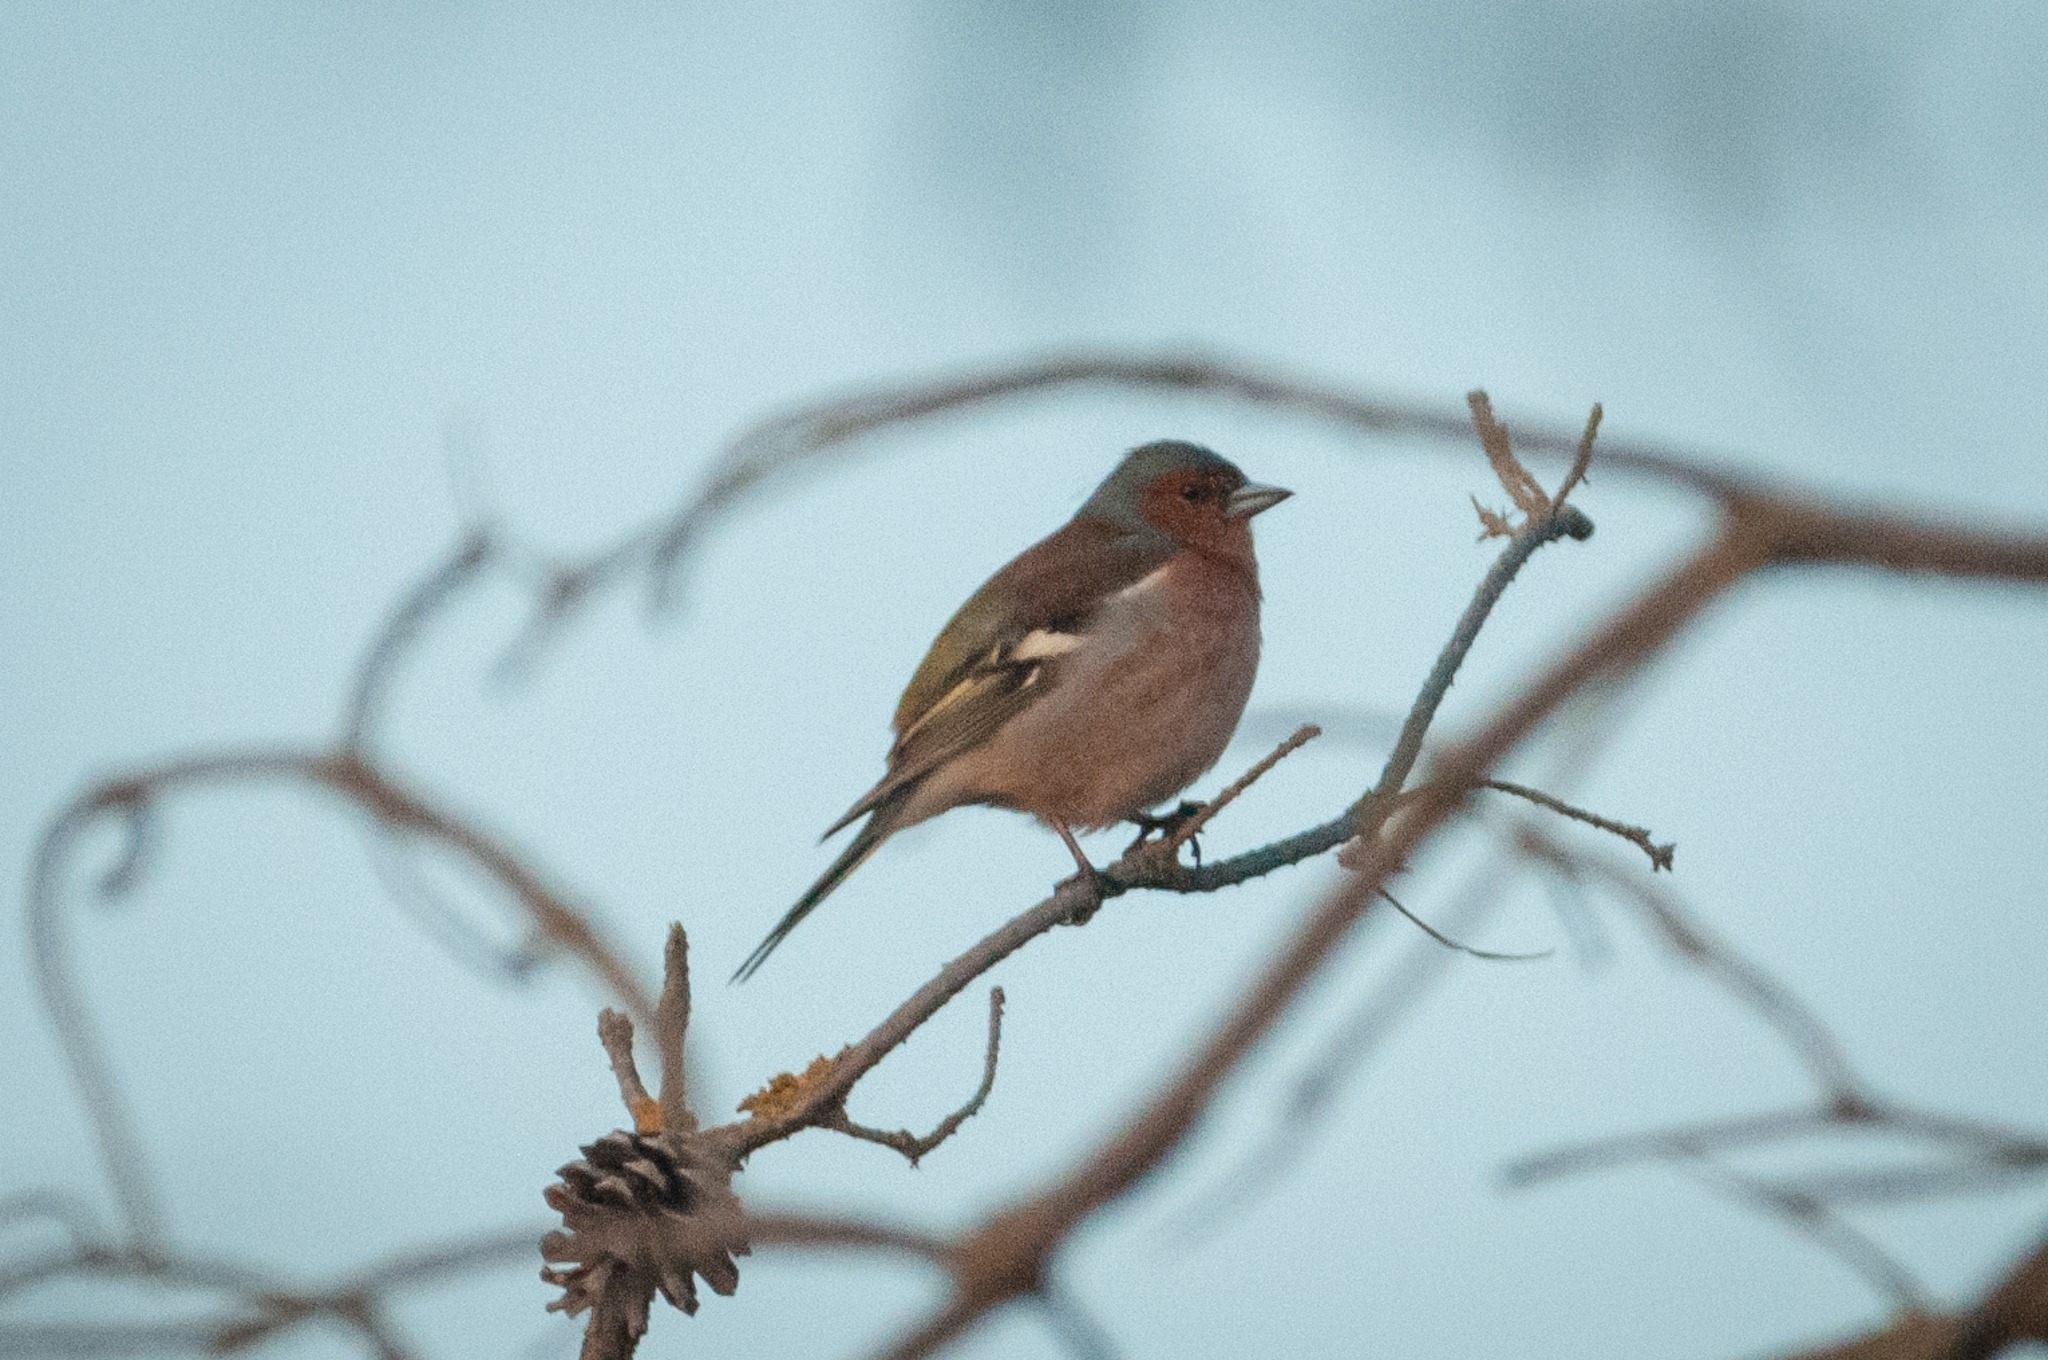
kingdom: Animalia
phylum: Chordata
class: Aves
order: Passeriformes
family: Fringillidae
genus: Fringilla
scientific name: Fringilla coelebs
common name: Bogfinke
